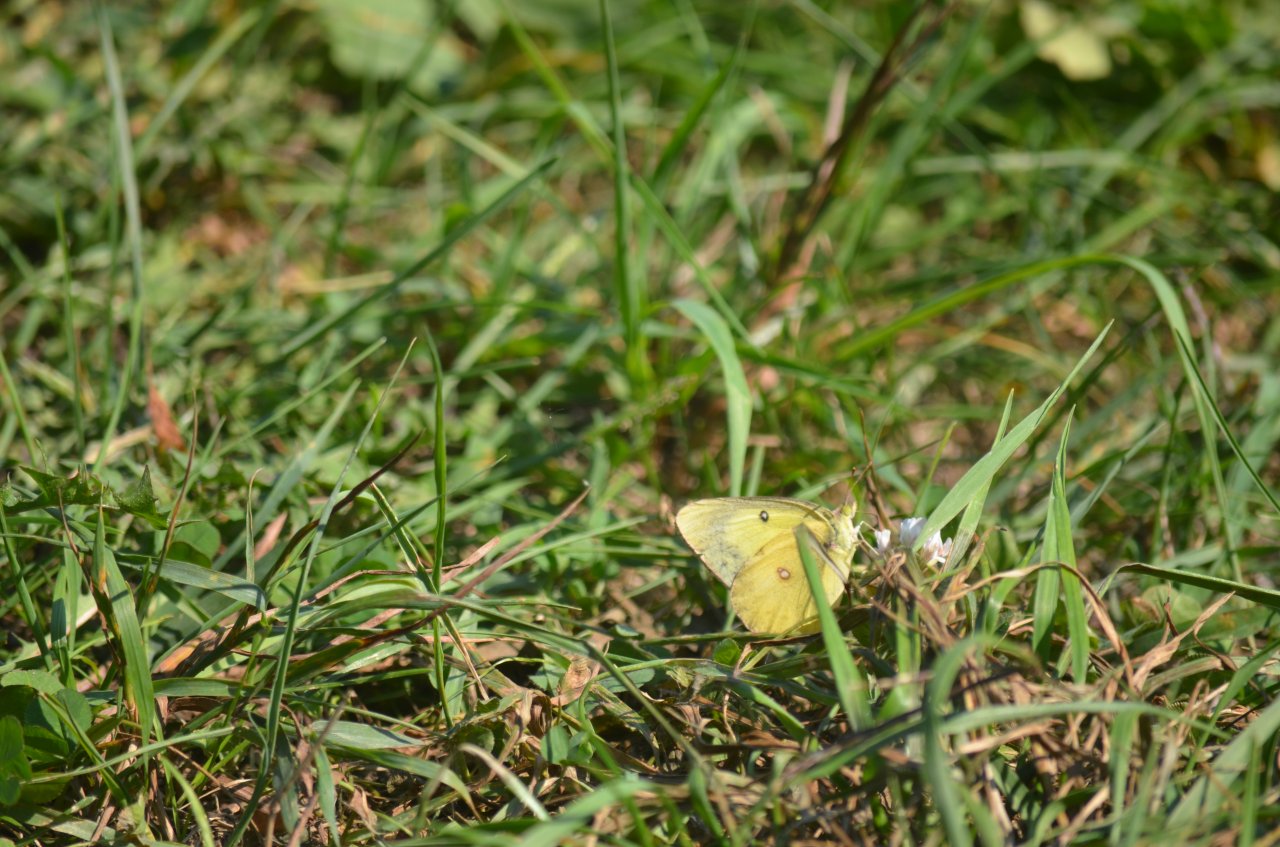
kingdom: Animalia
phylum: Arthropoda
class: Insecta
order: Lepidoptera
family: Pieridae
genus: Colias
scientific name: Colias philodice
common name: Clouded Sulphur
